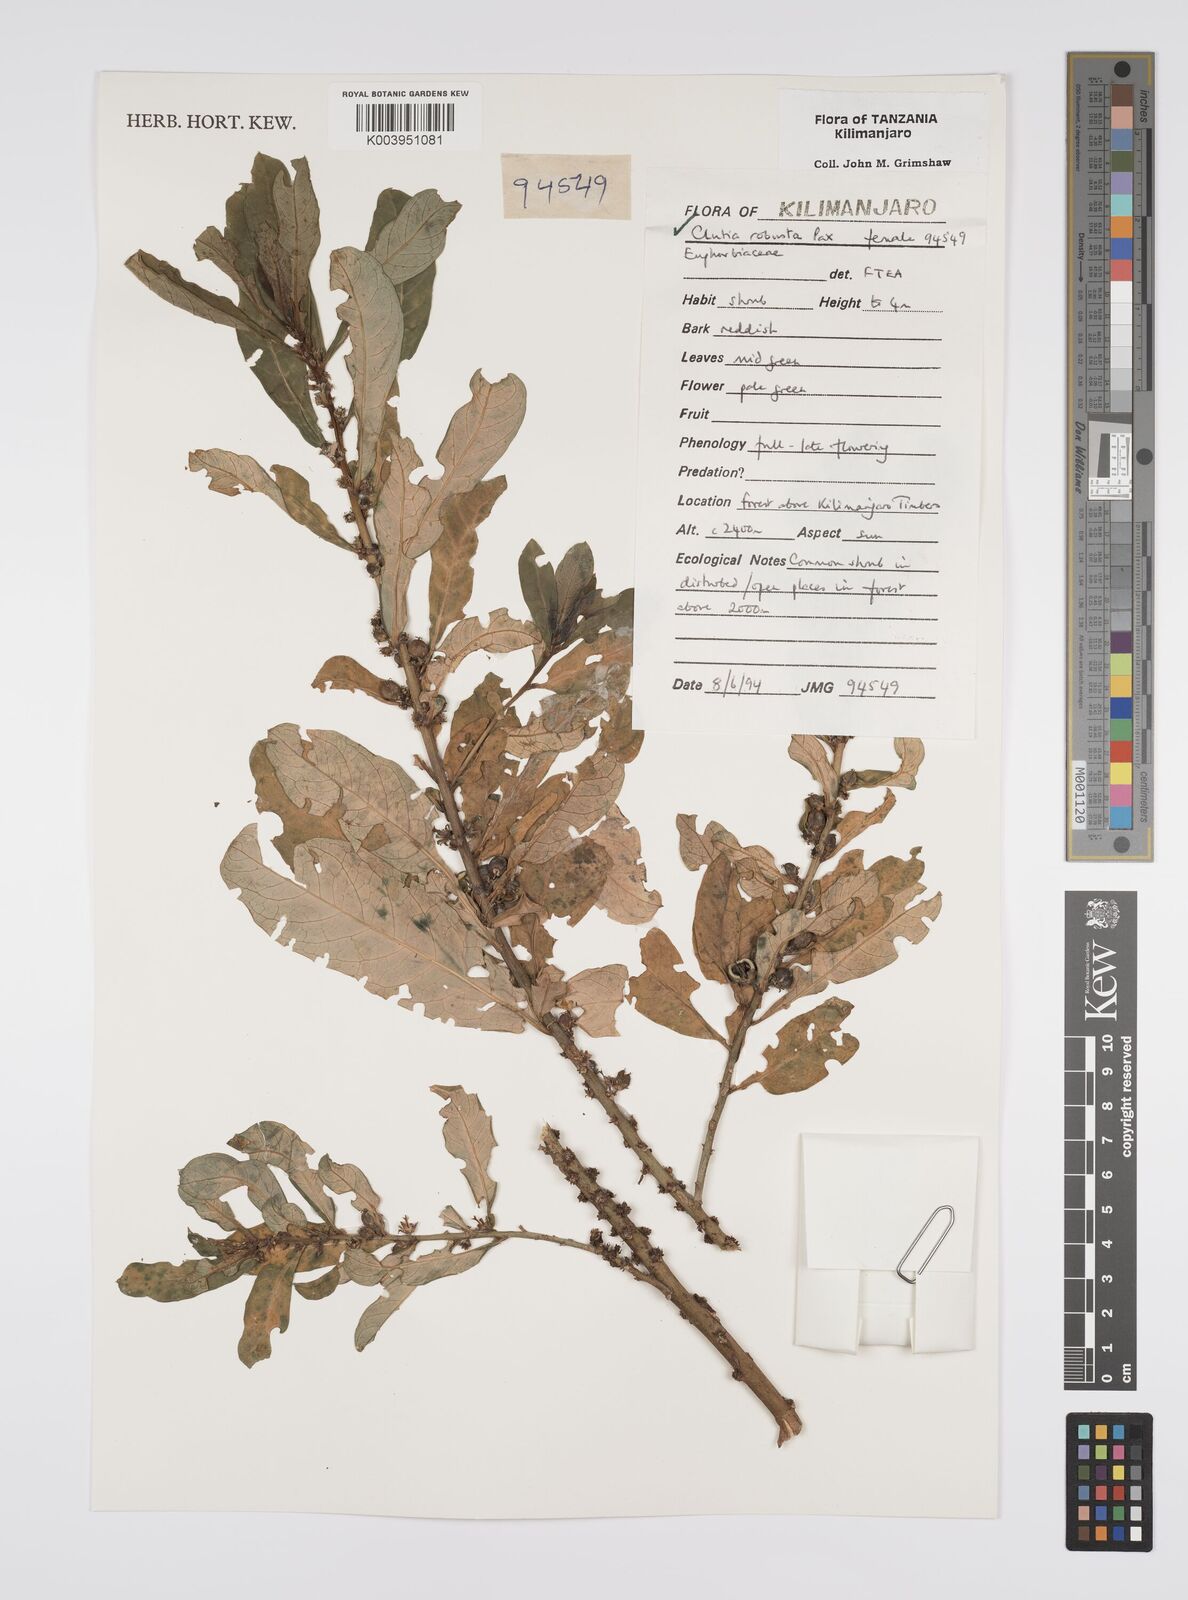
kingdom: Plantae
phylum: Tracheophyta
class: Magnoliopsida
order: Malpighiales
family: Peraceae
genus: Clutia
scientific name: Clutia kilimandscharica
